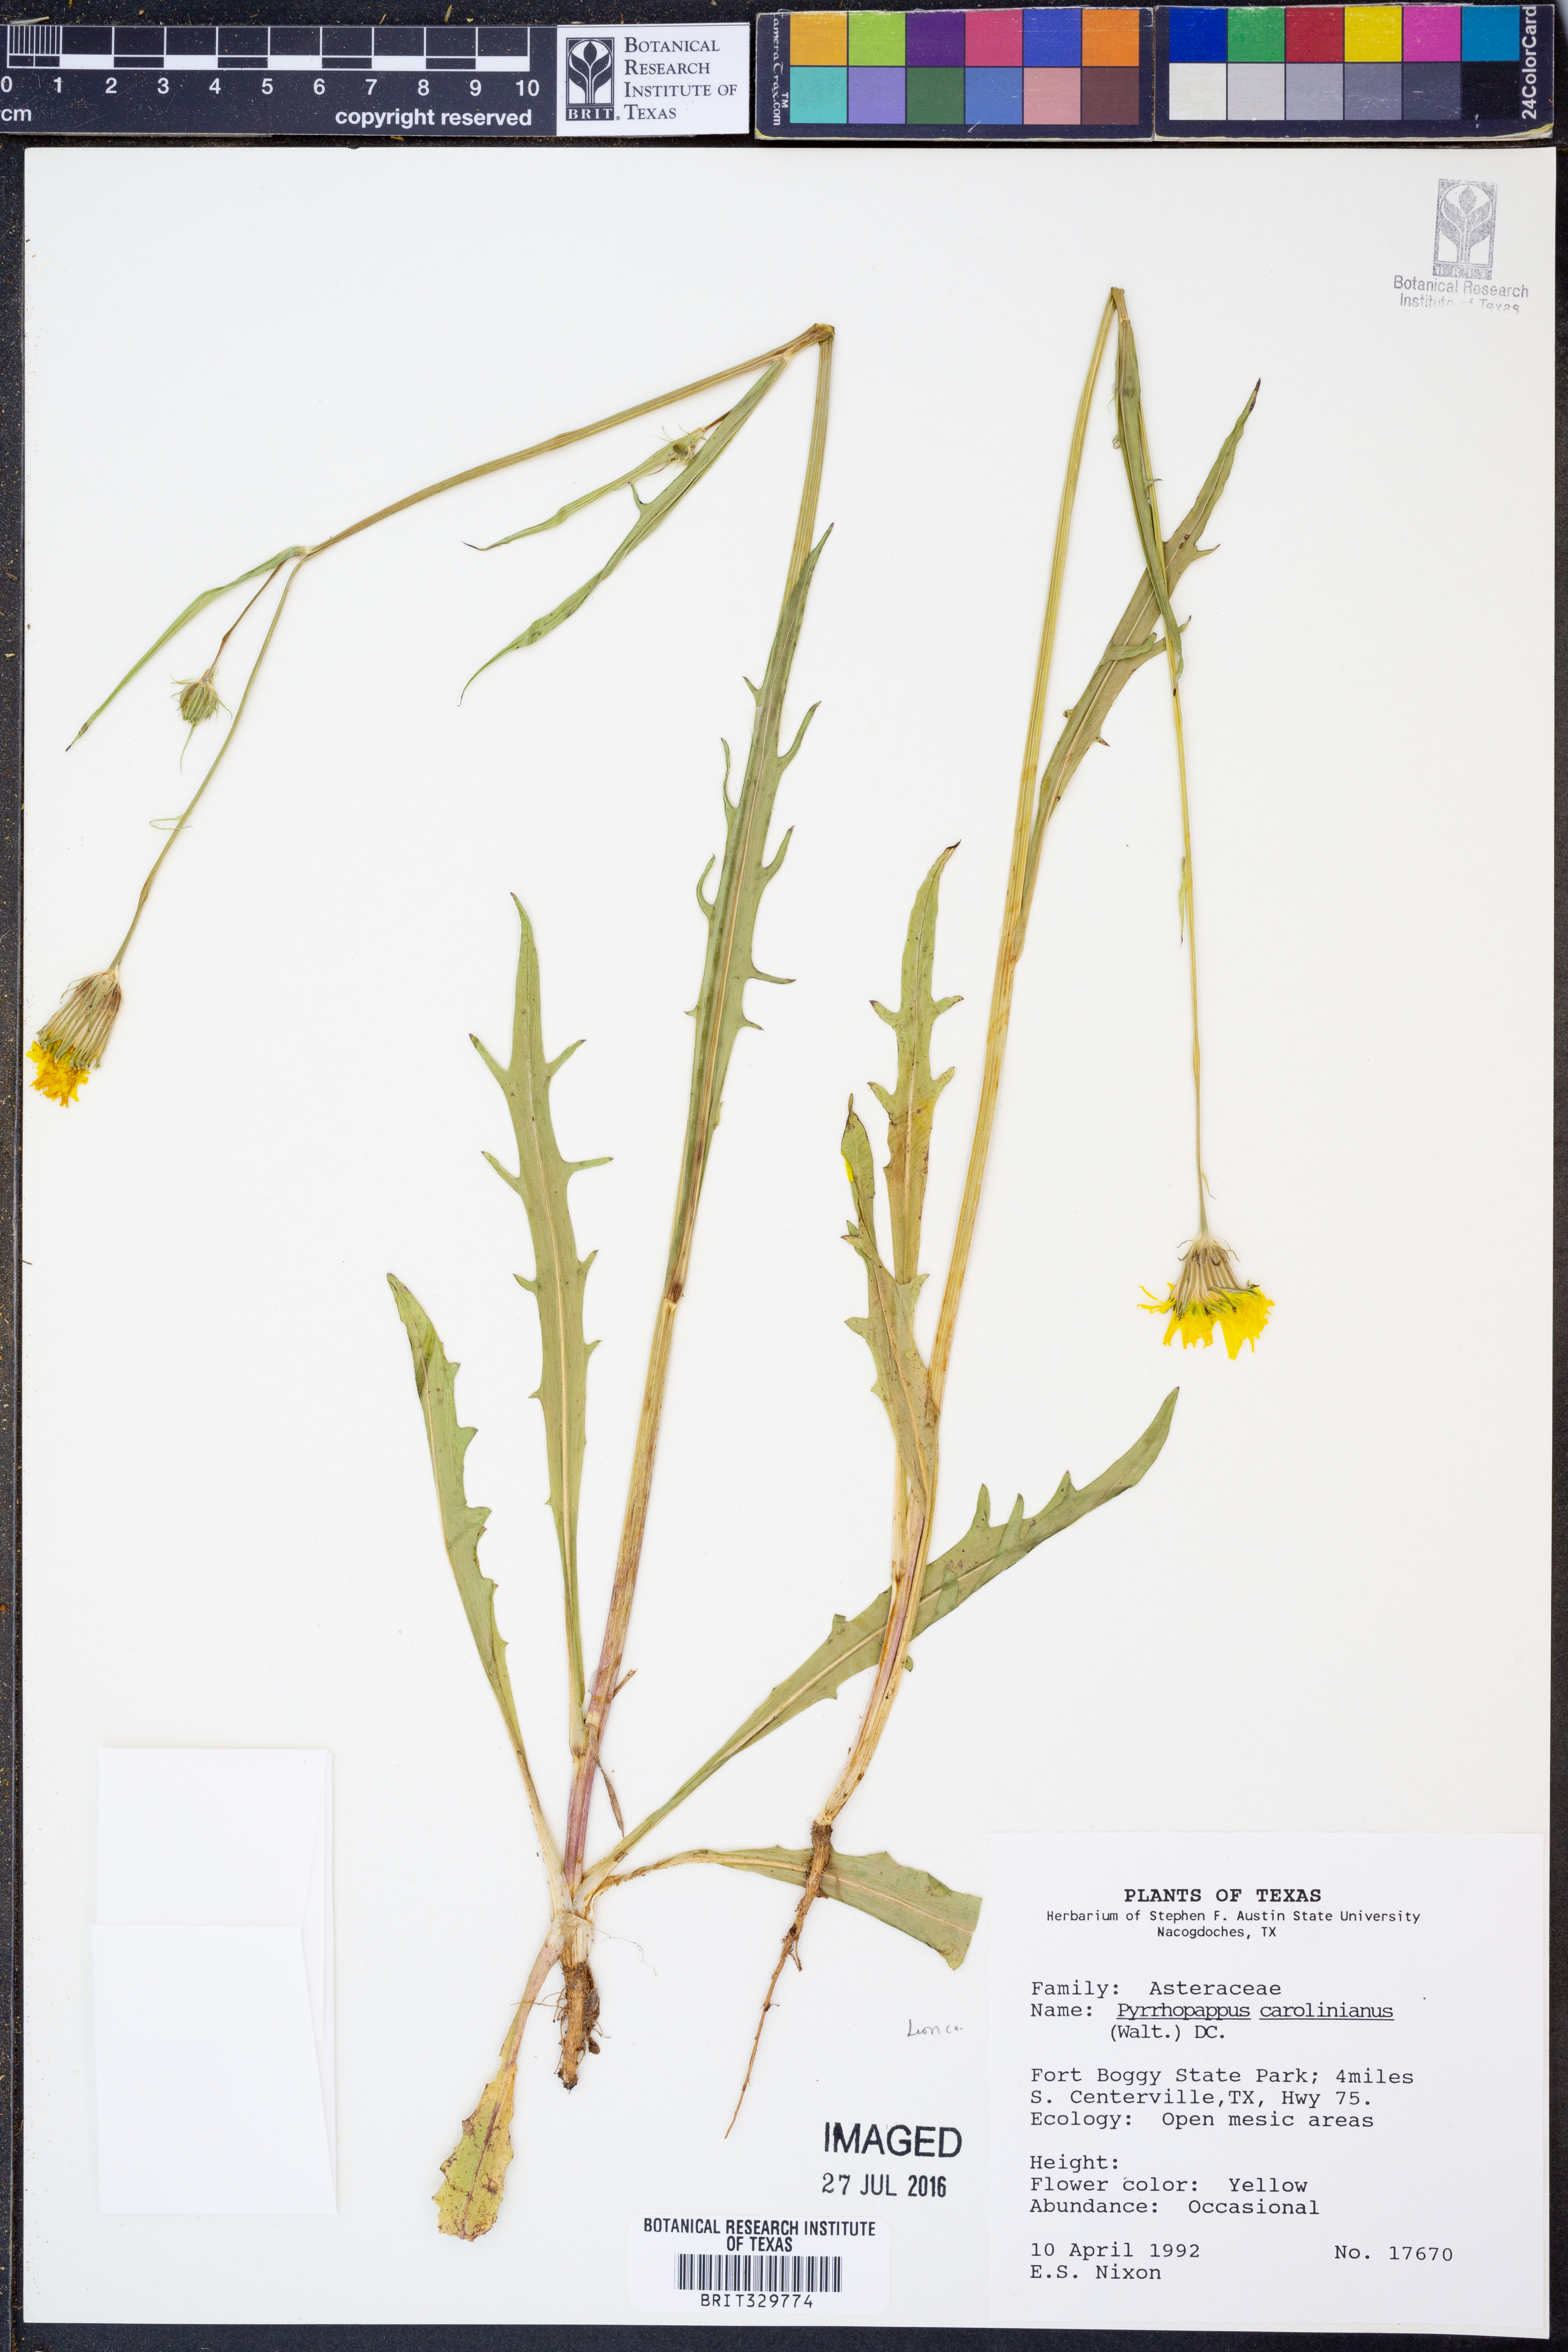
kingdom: Plantae
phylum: Tracheophyta
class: Magnoliopsida
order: Asterales
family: Asteraceae
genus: Pyrrhopappus
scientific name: Pyrrhopappus carolinianus
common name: Carolina desert-chicory
